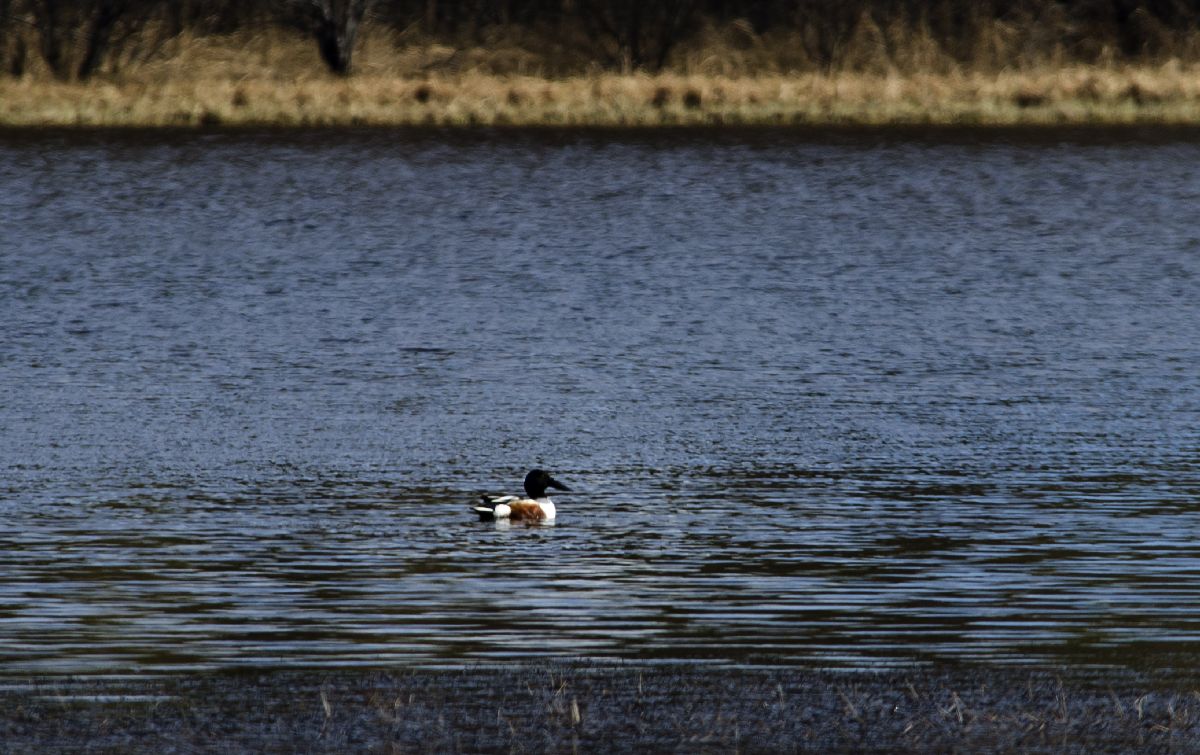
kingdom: Animalia
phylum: Chordata
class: Aves
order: Anseriformes
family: Anatidae
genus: Spatula
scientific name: Spatula clypeata
